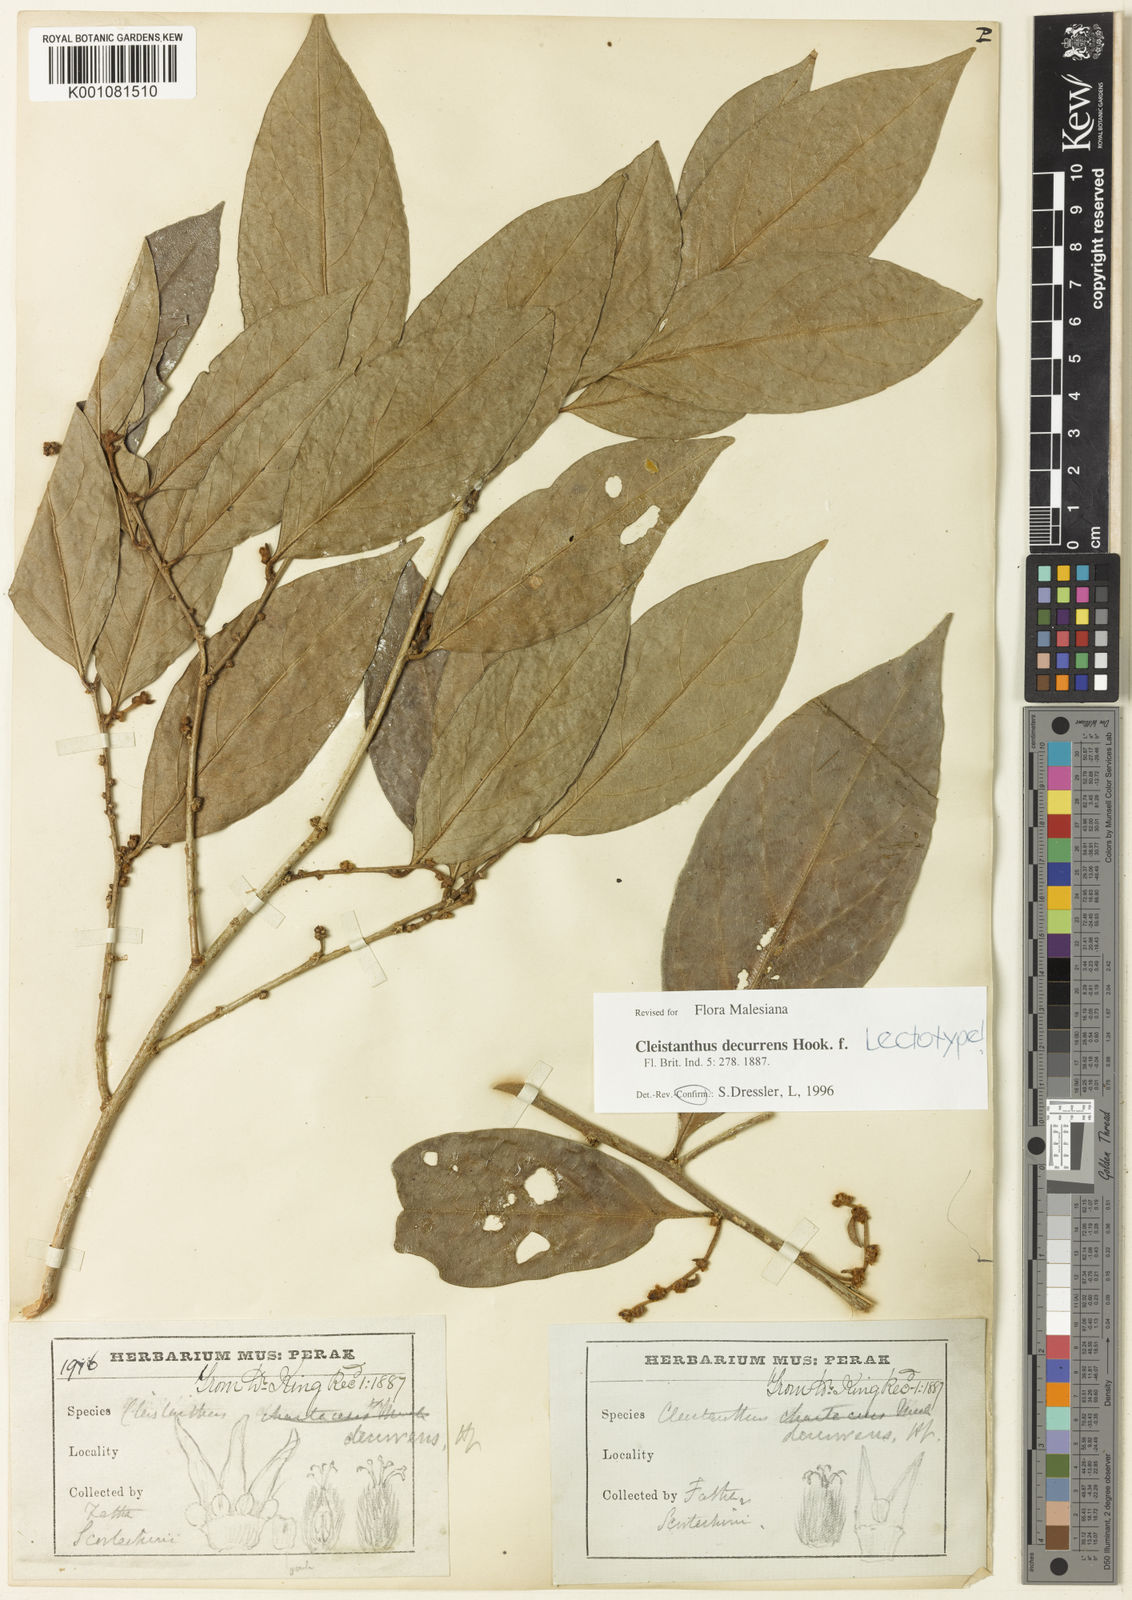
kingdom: Plantae
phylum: Tracheophyta
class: Magnoliopsida
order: Malpighiales
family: Phyllanthaceae
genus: Cleistanthus
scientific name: Cleistanthus decurrens
